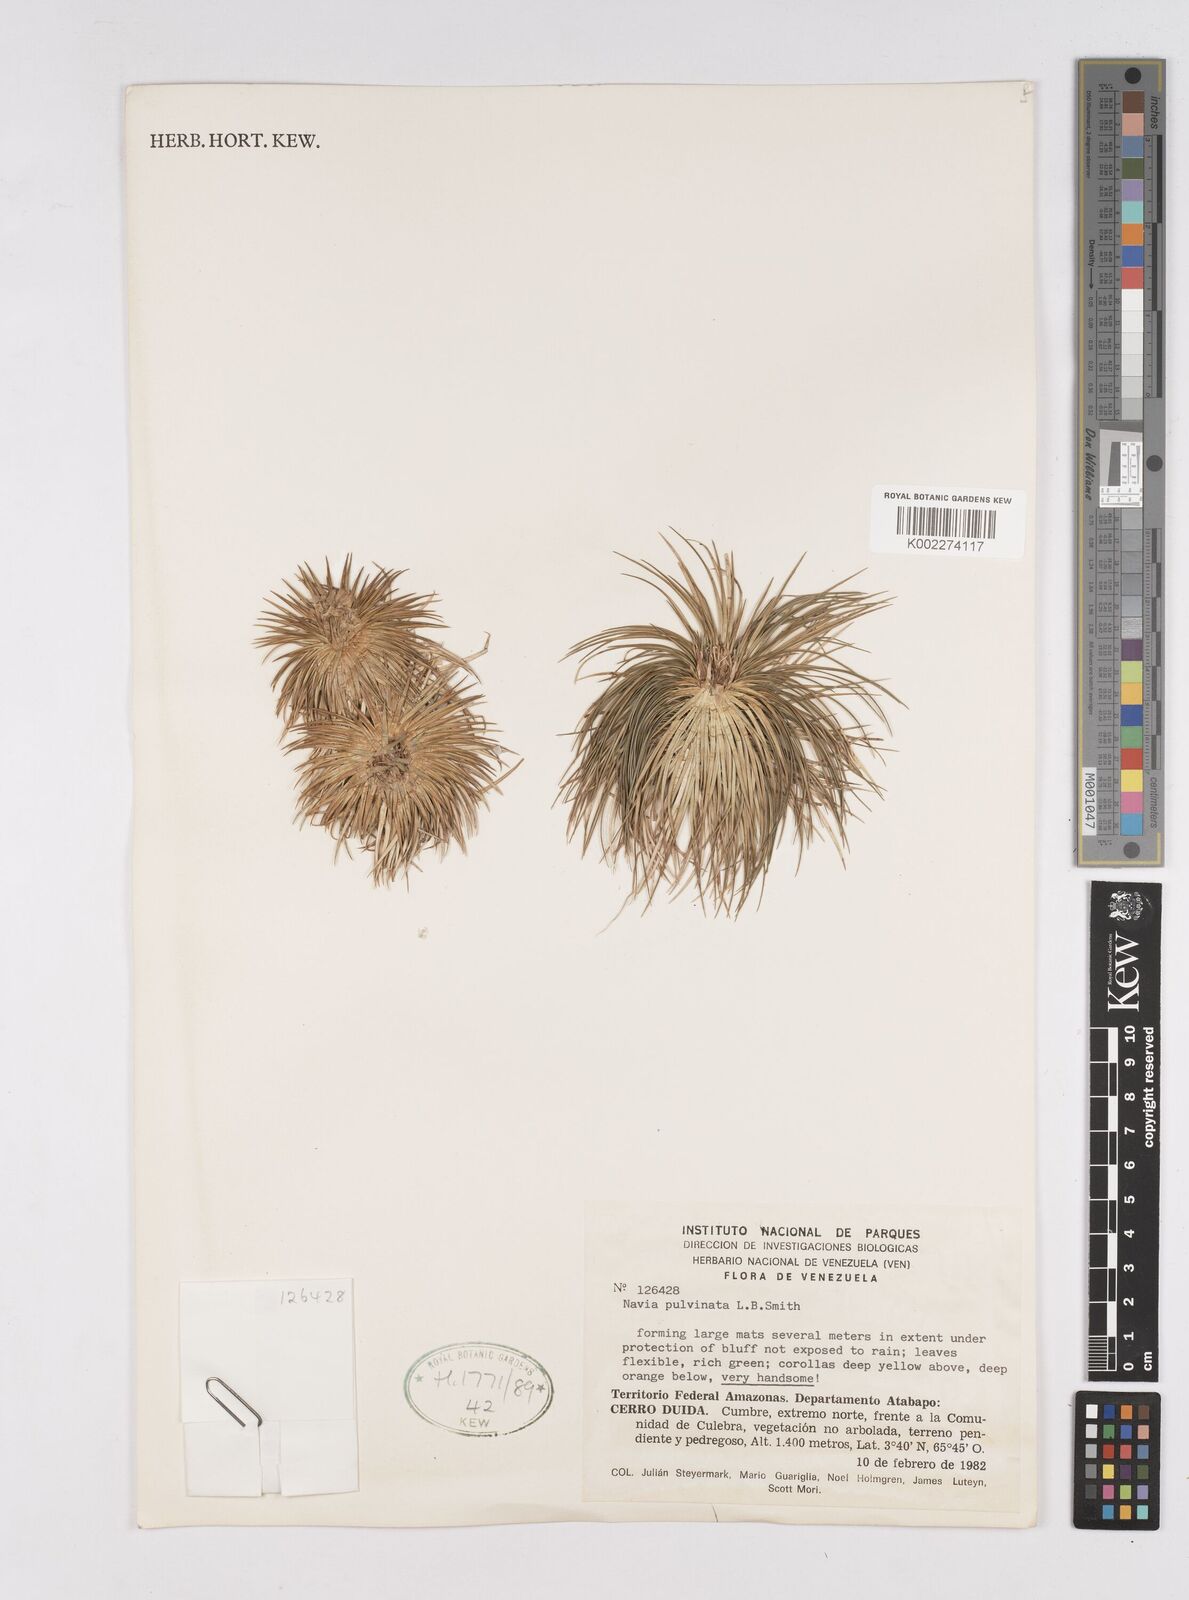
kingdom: Plantae
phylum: Tracheophyta
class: Liliopsida
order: Poales
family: Bromeliaceae
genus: Navia
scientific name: Navia pulvinata
